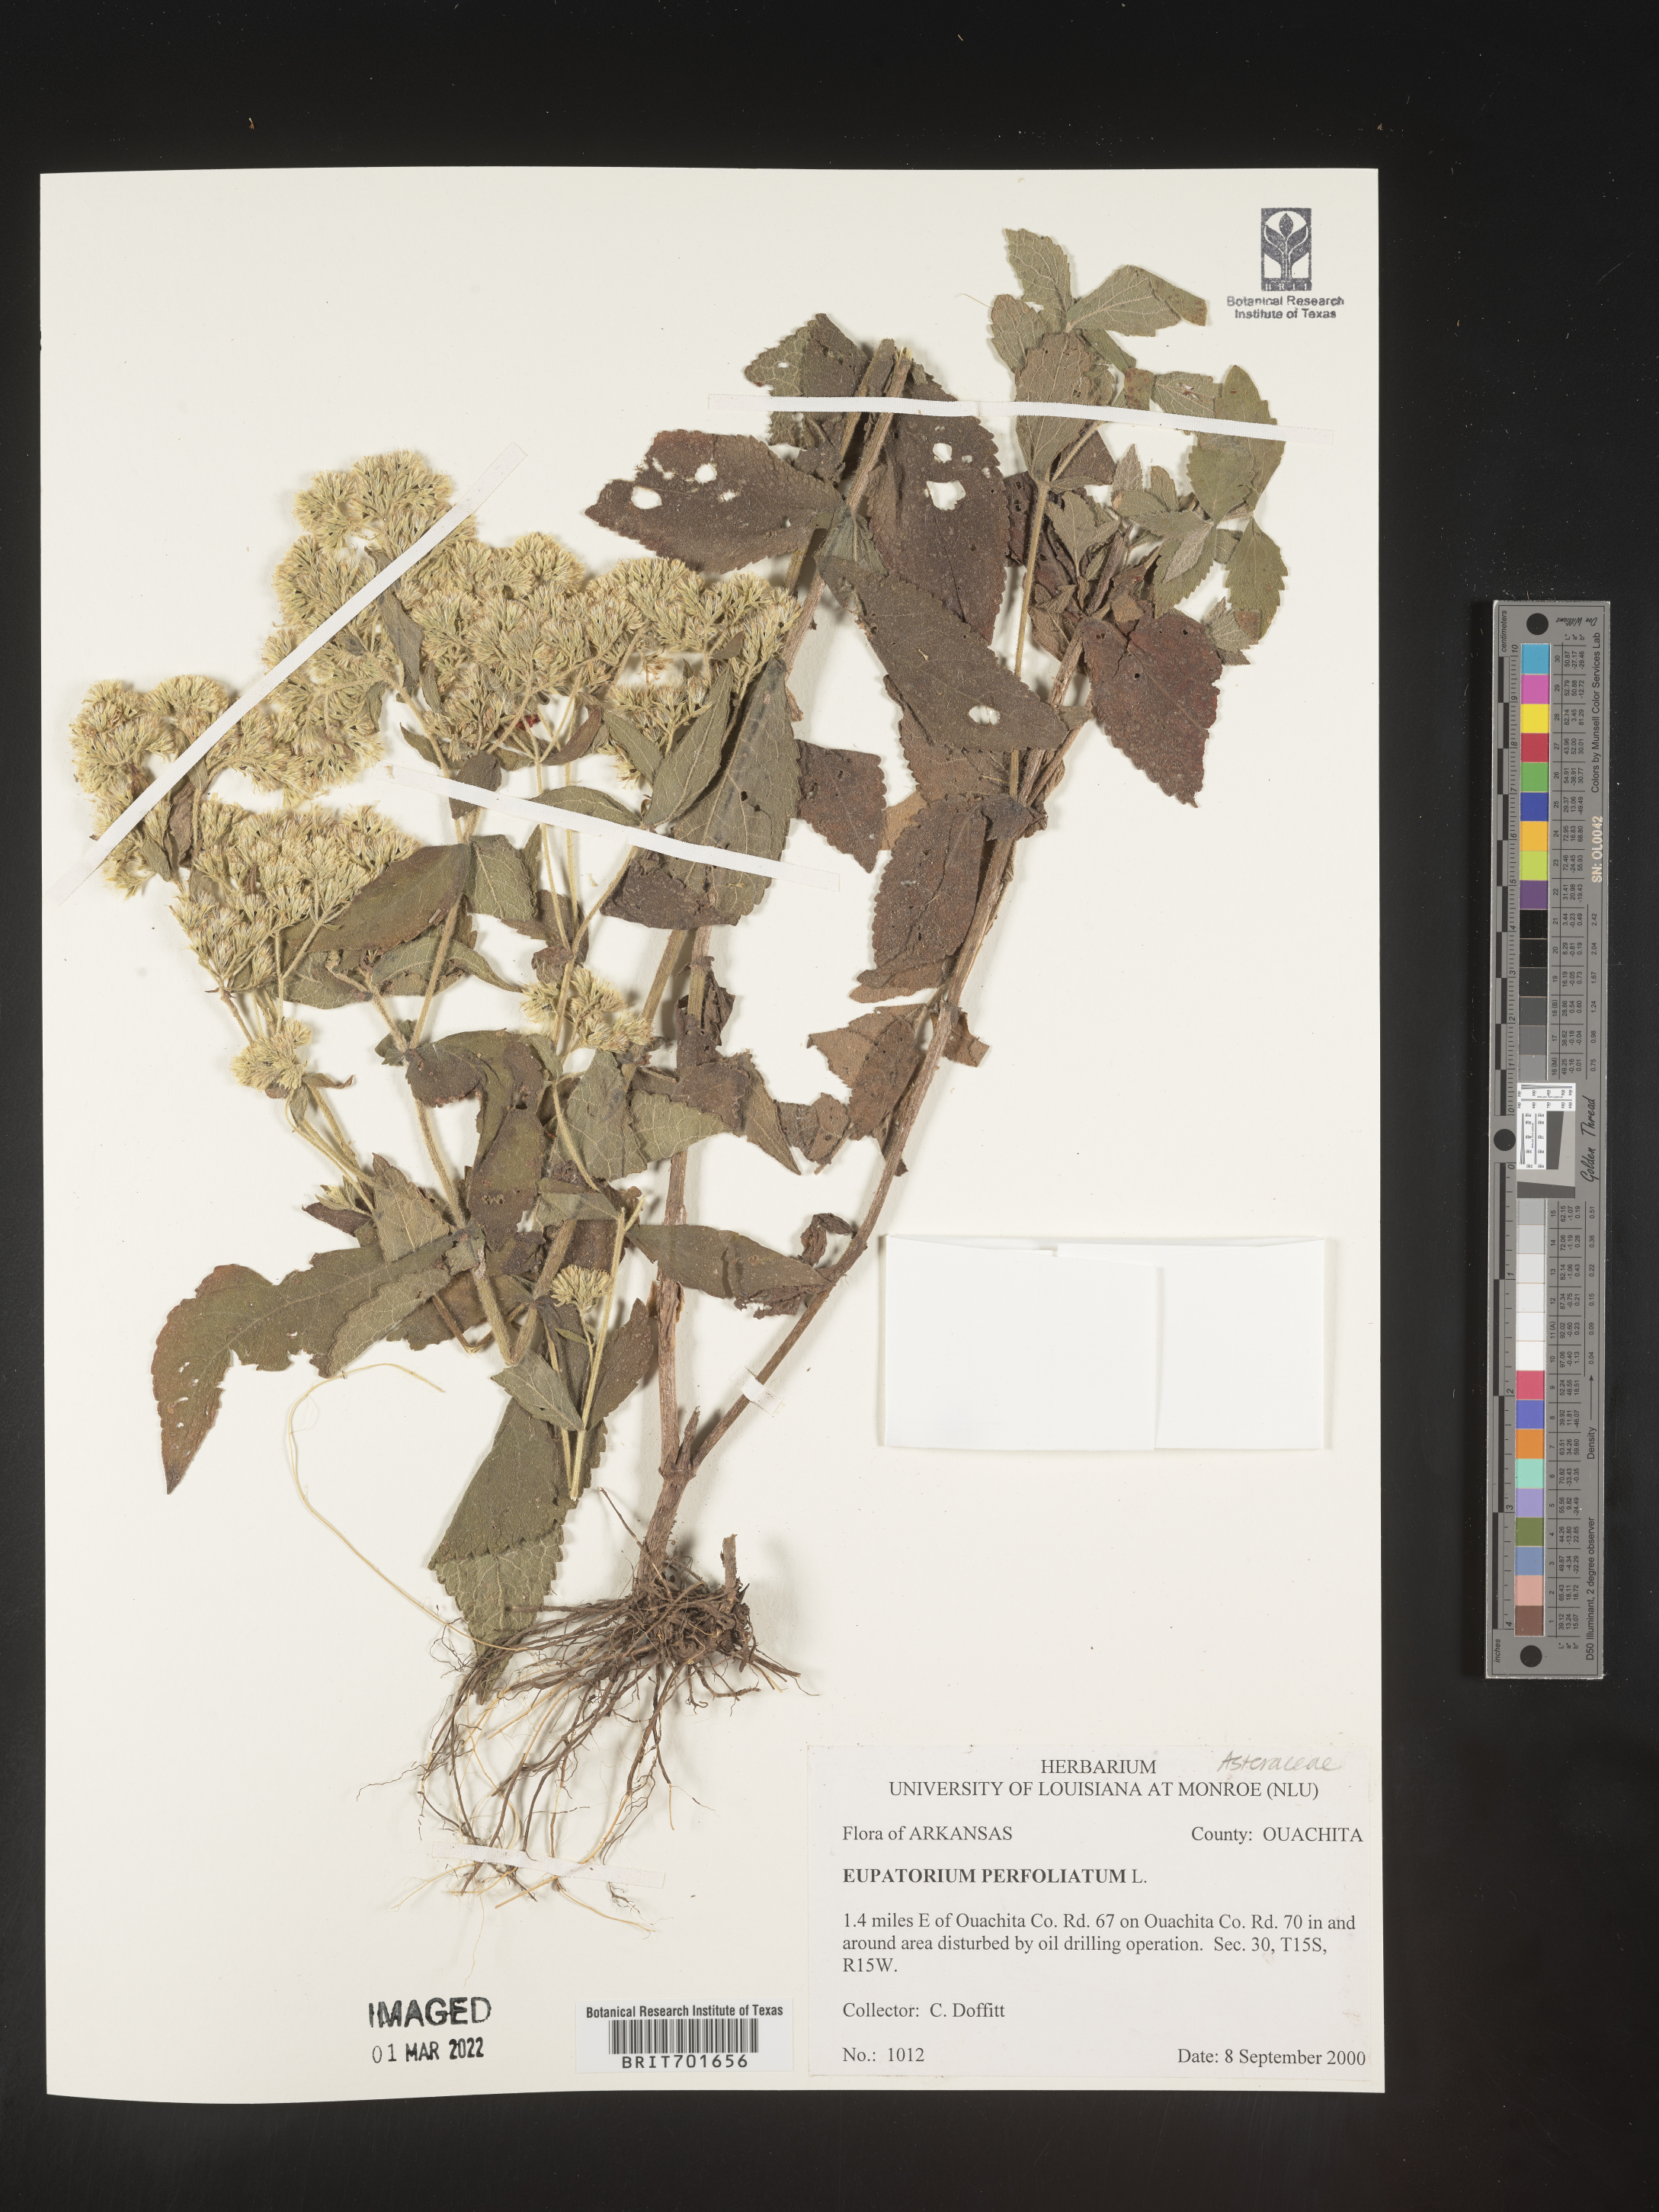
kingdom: Plantae
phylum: Tracheophyta
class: Magnoliopsida
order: Asterales
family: Asteraceae
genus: Eupatorium
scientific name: Eupatorium perfoliatum
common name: Boneset
